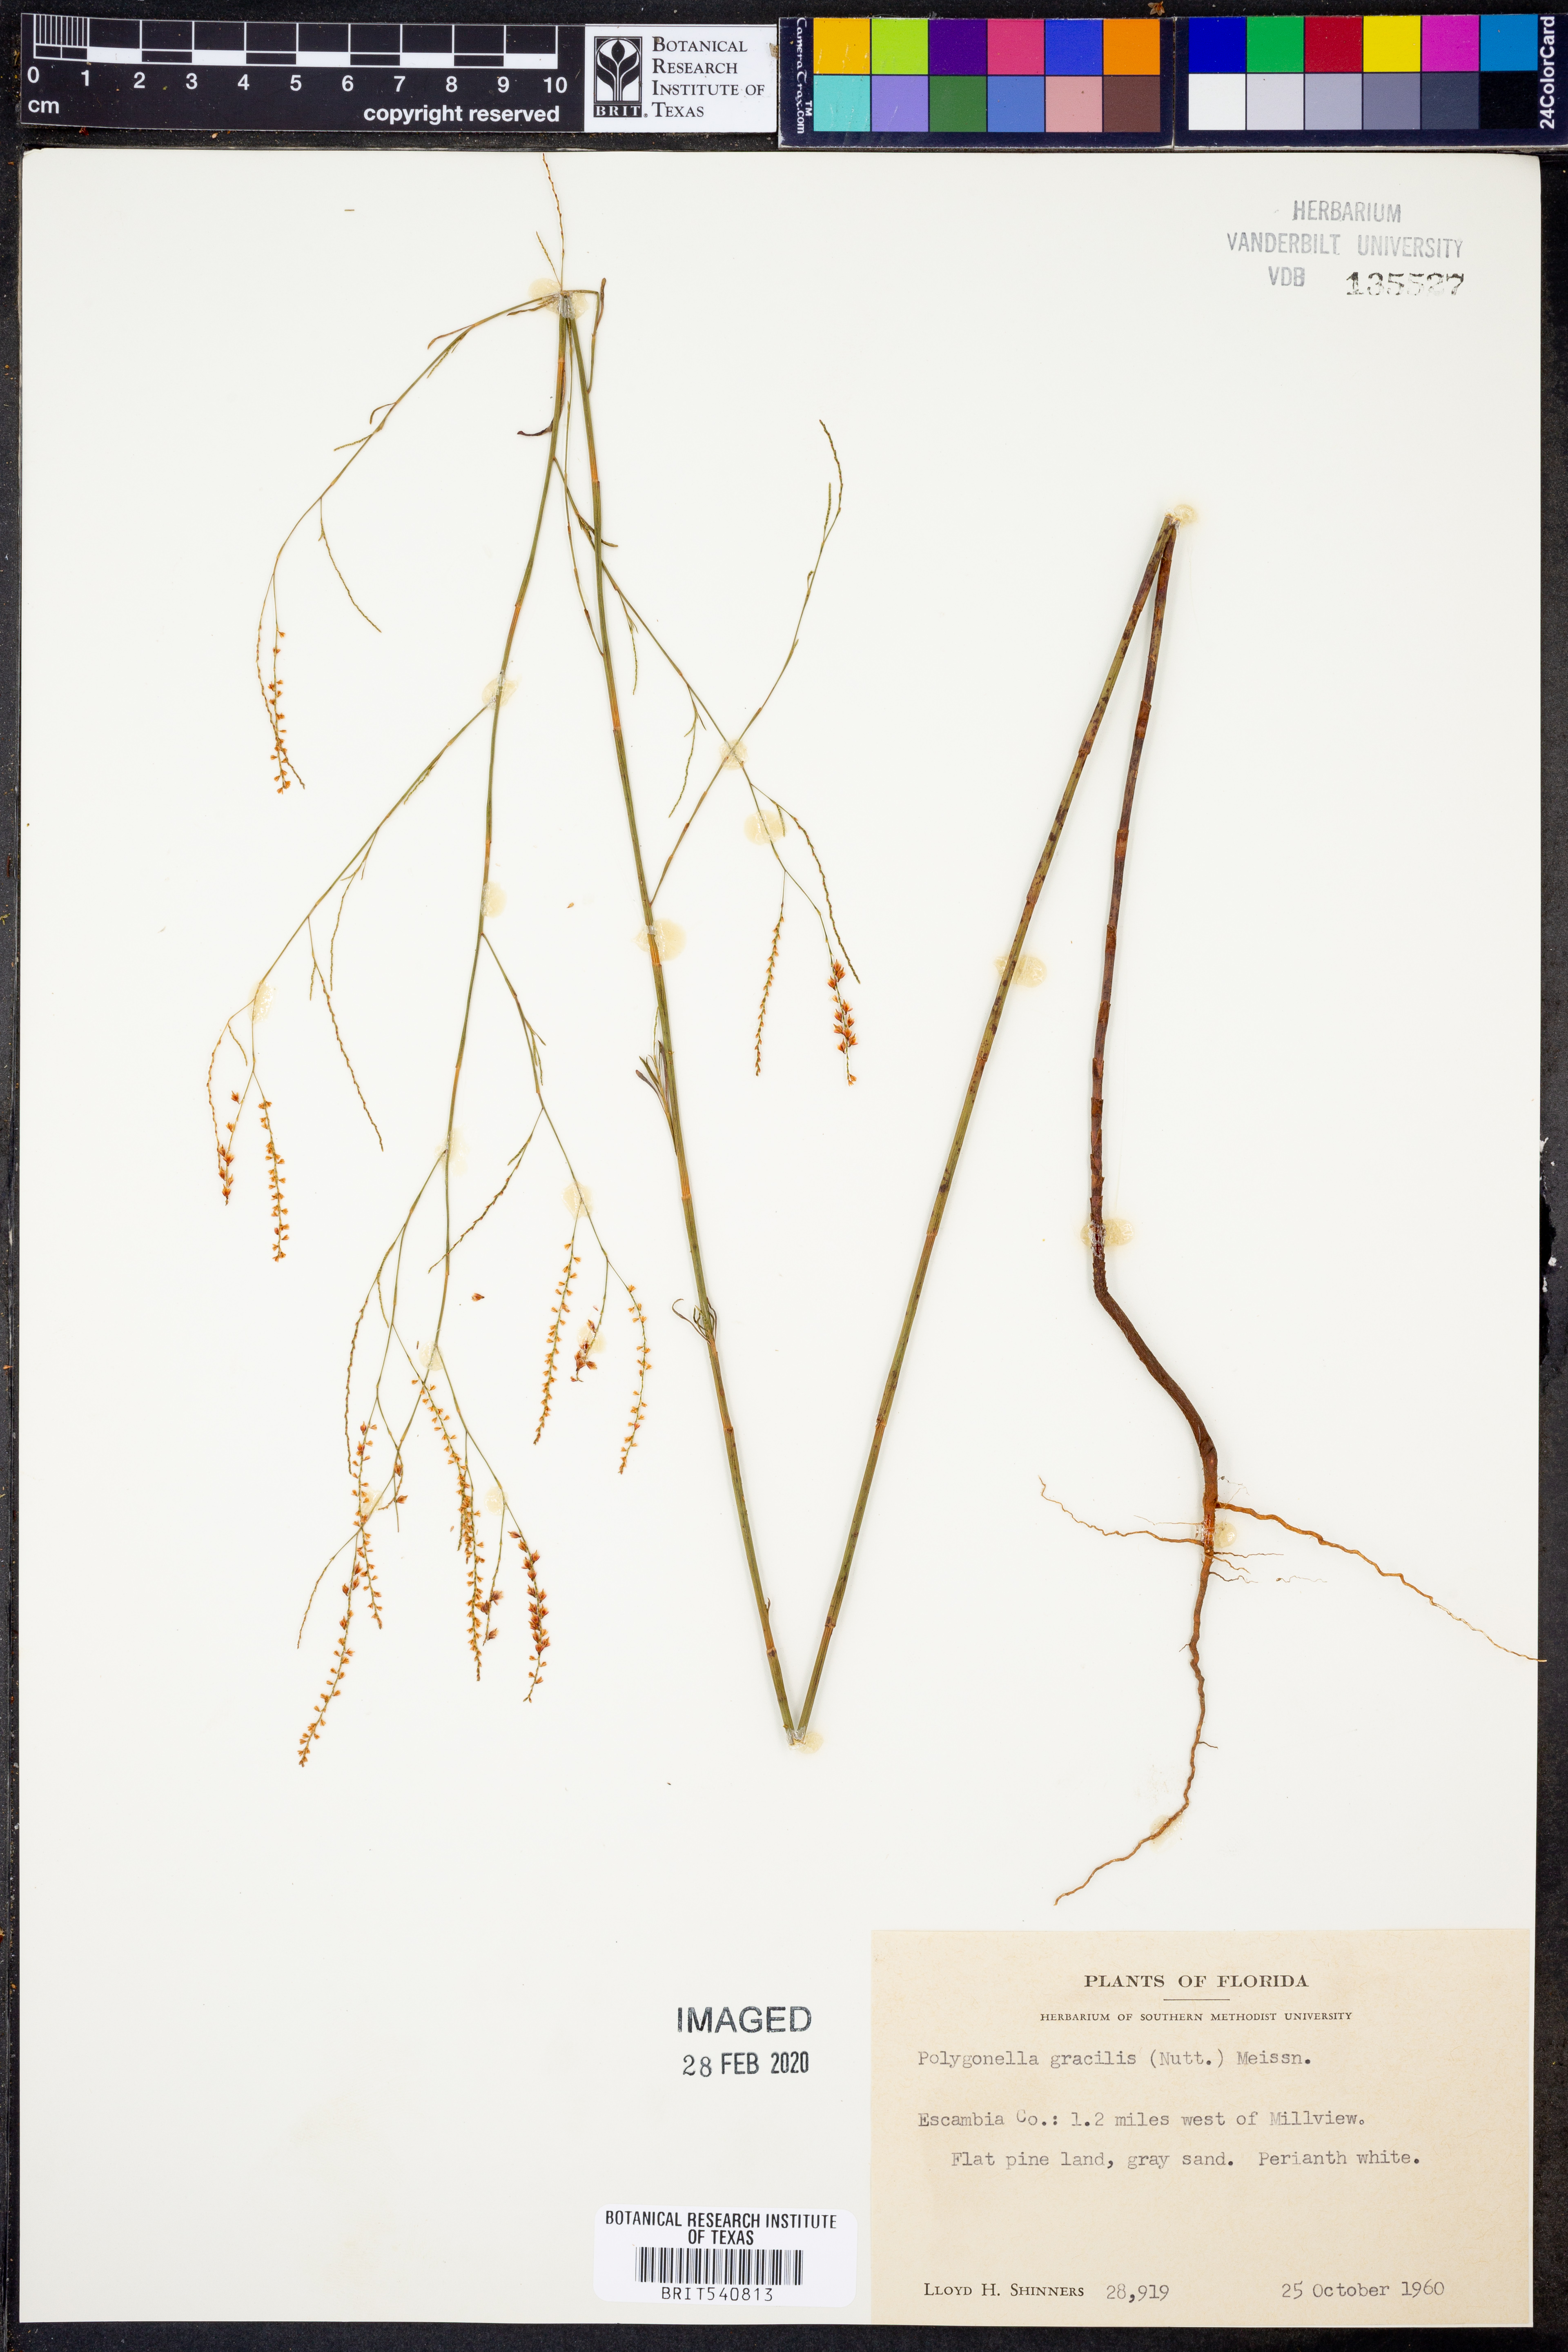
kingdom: Plantae
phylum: Tracheophyta
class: Magnoliopsida
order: Caryophyllales
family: Polygonaceae
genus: Polygonella
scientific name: Polygonella gracilis
